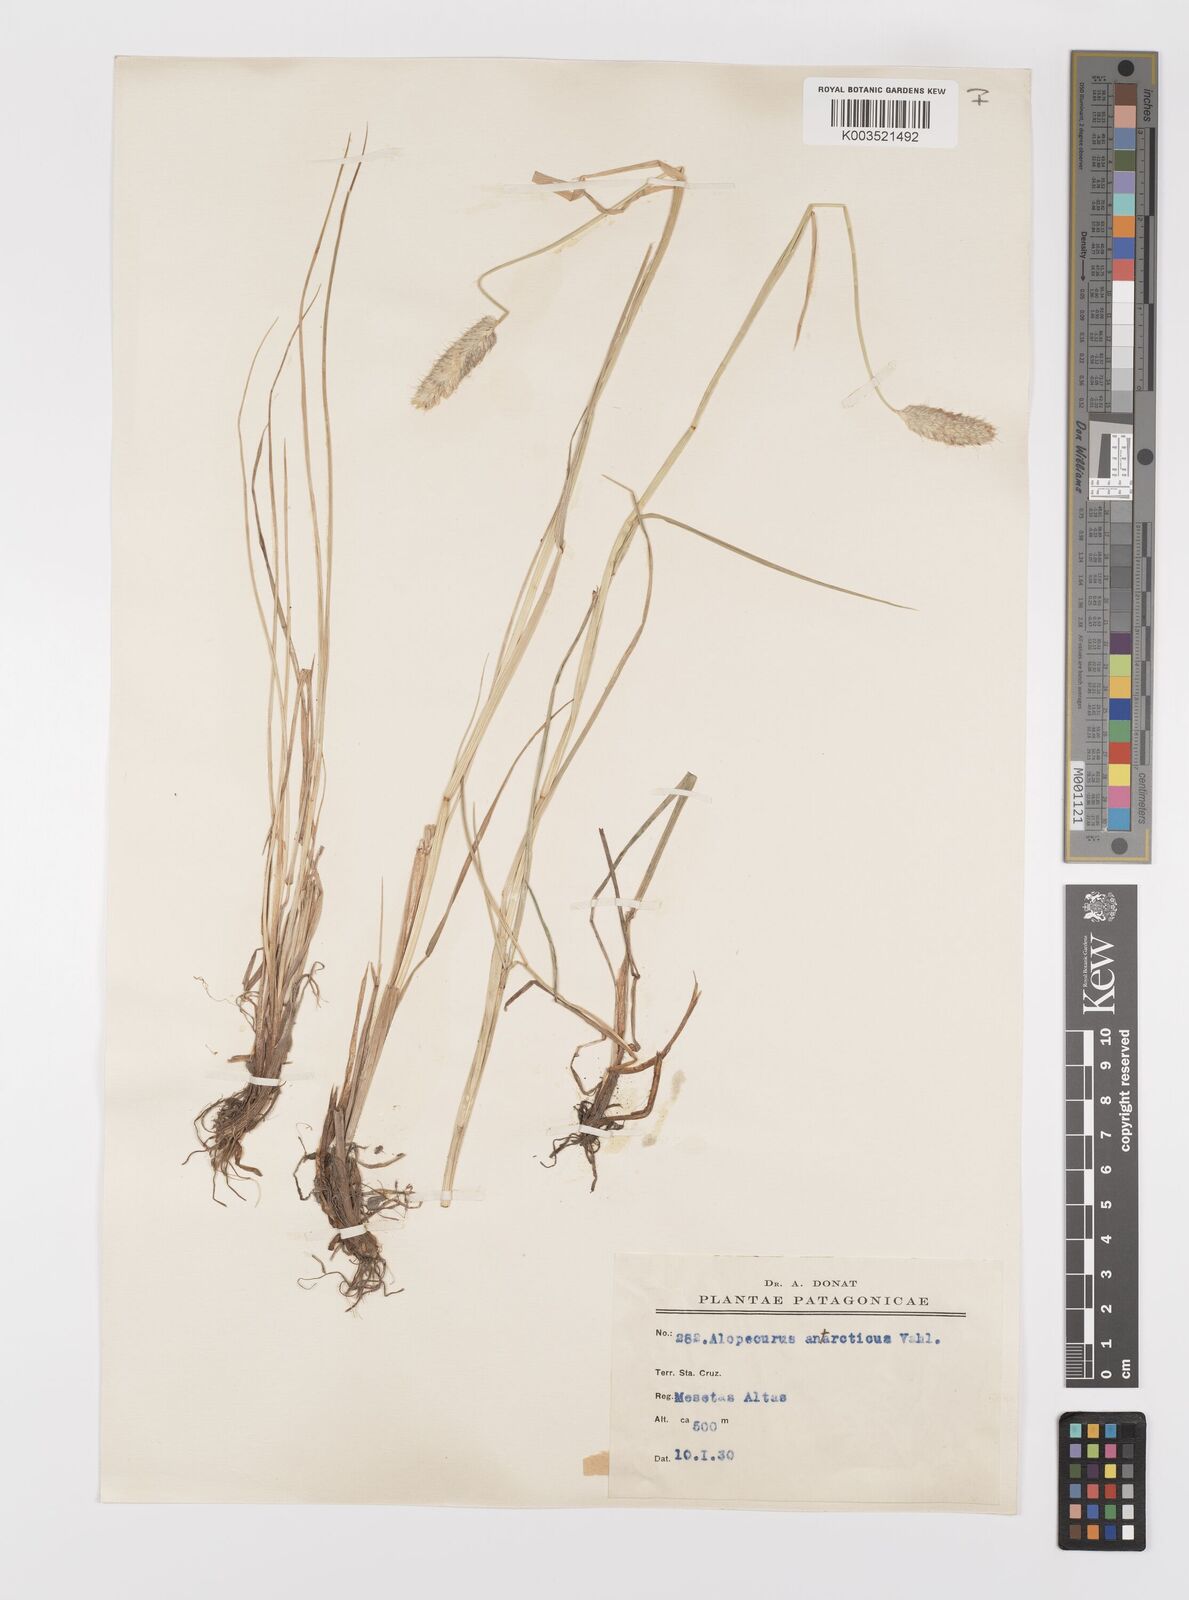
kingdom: Plantae
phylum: Tracheophyta
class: Liliopsida
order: Poales
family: Poaceae
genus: Alopecurus
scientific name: Alopecurus magellanicus
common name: Alpine foxtail
